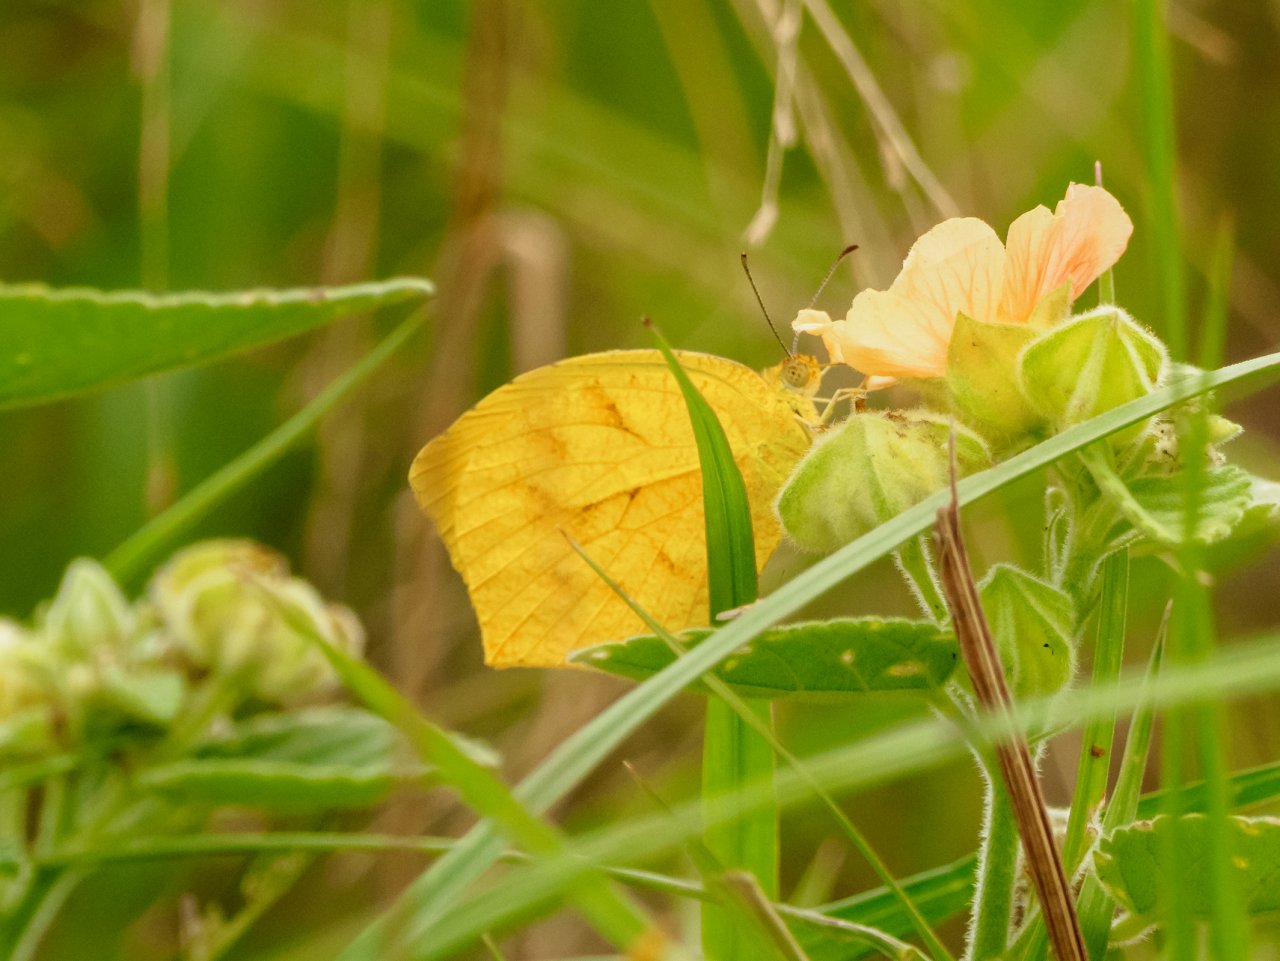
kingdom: Animalia
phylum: Arthropoda
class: Insecta
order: Lepidoptera
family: Pieridae
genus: Pyrisitia
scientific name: Pyrisitia proterpia
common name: Tailed Orange
